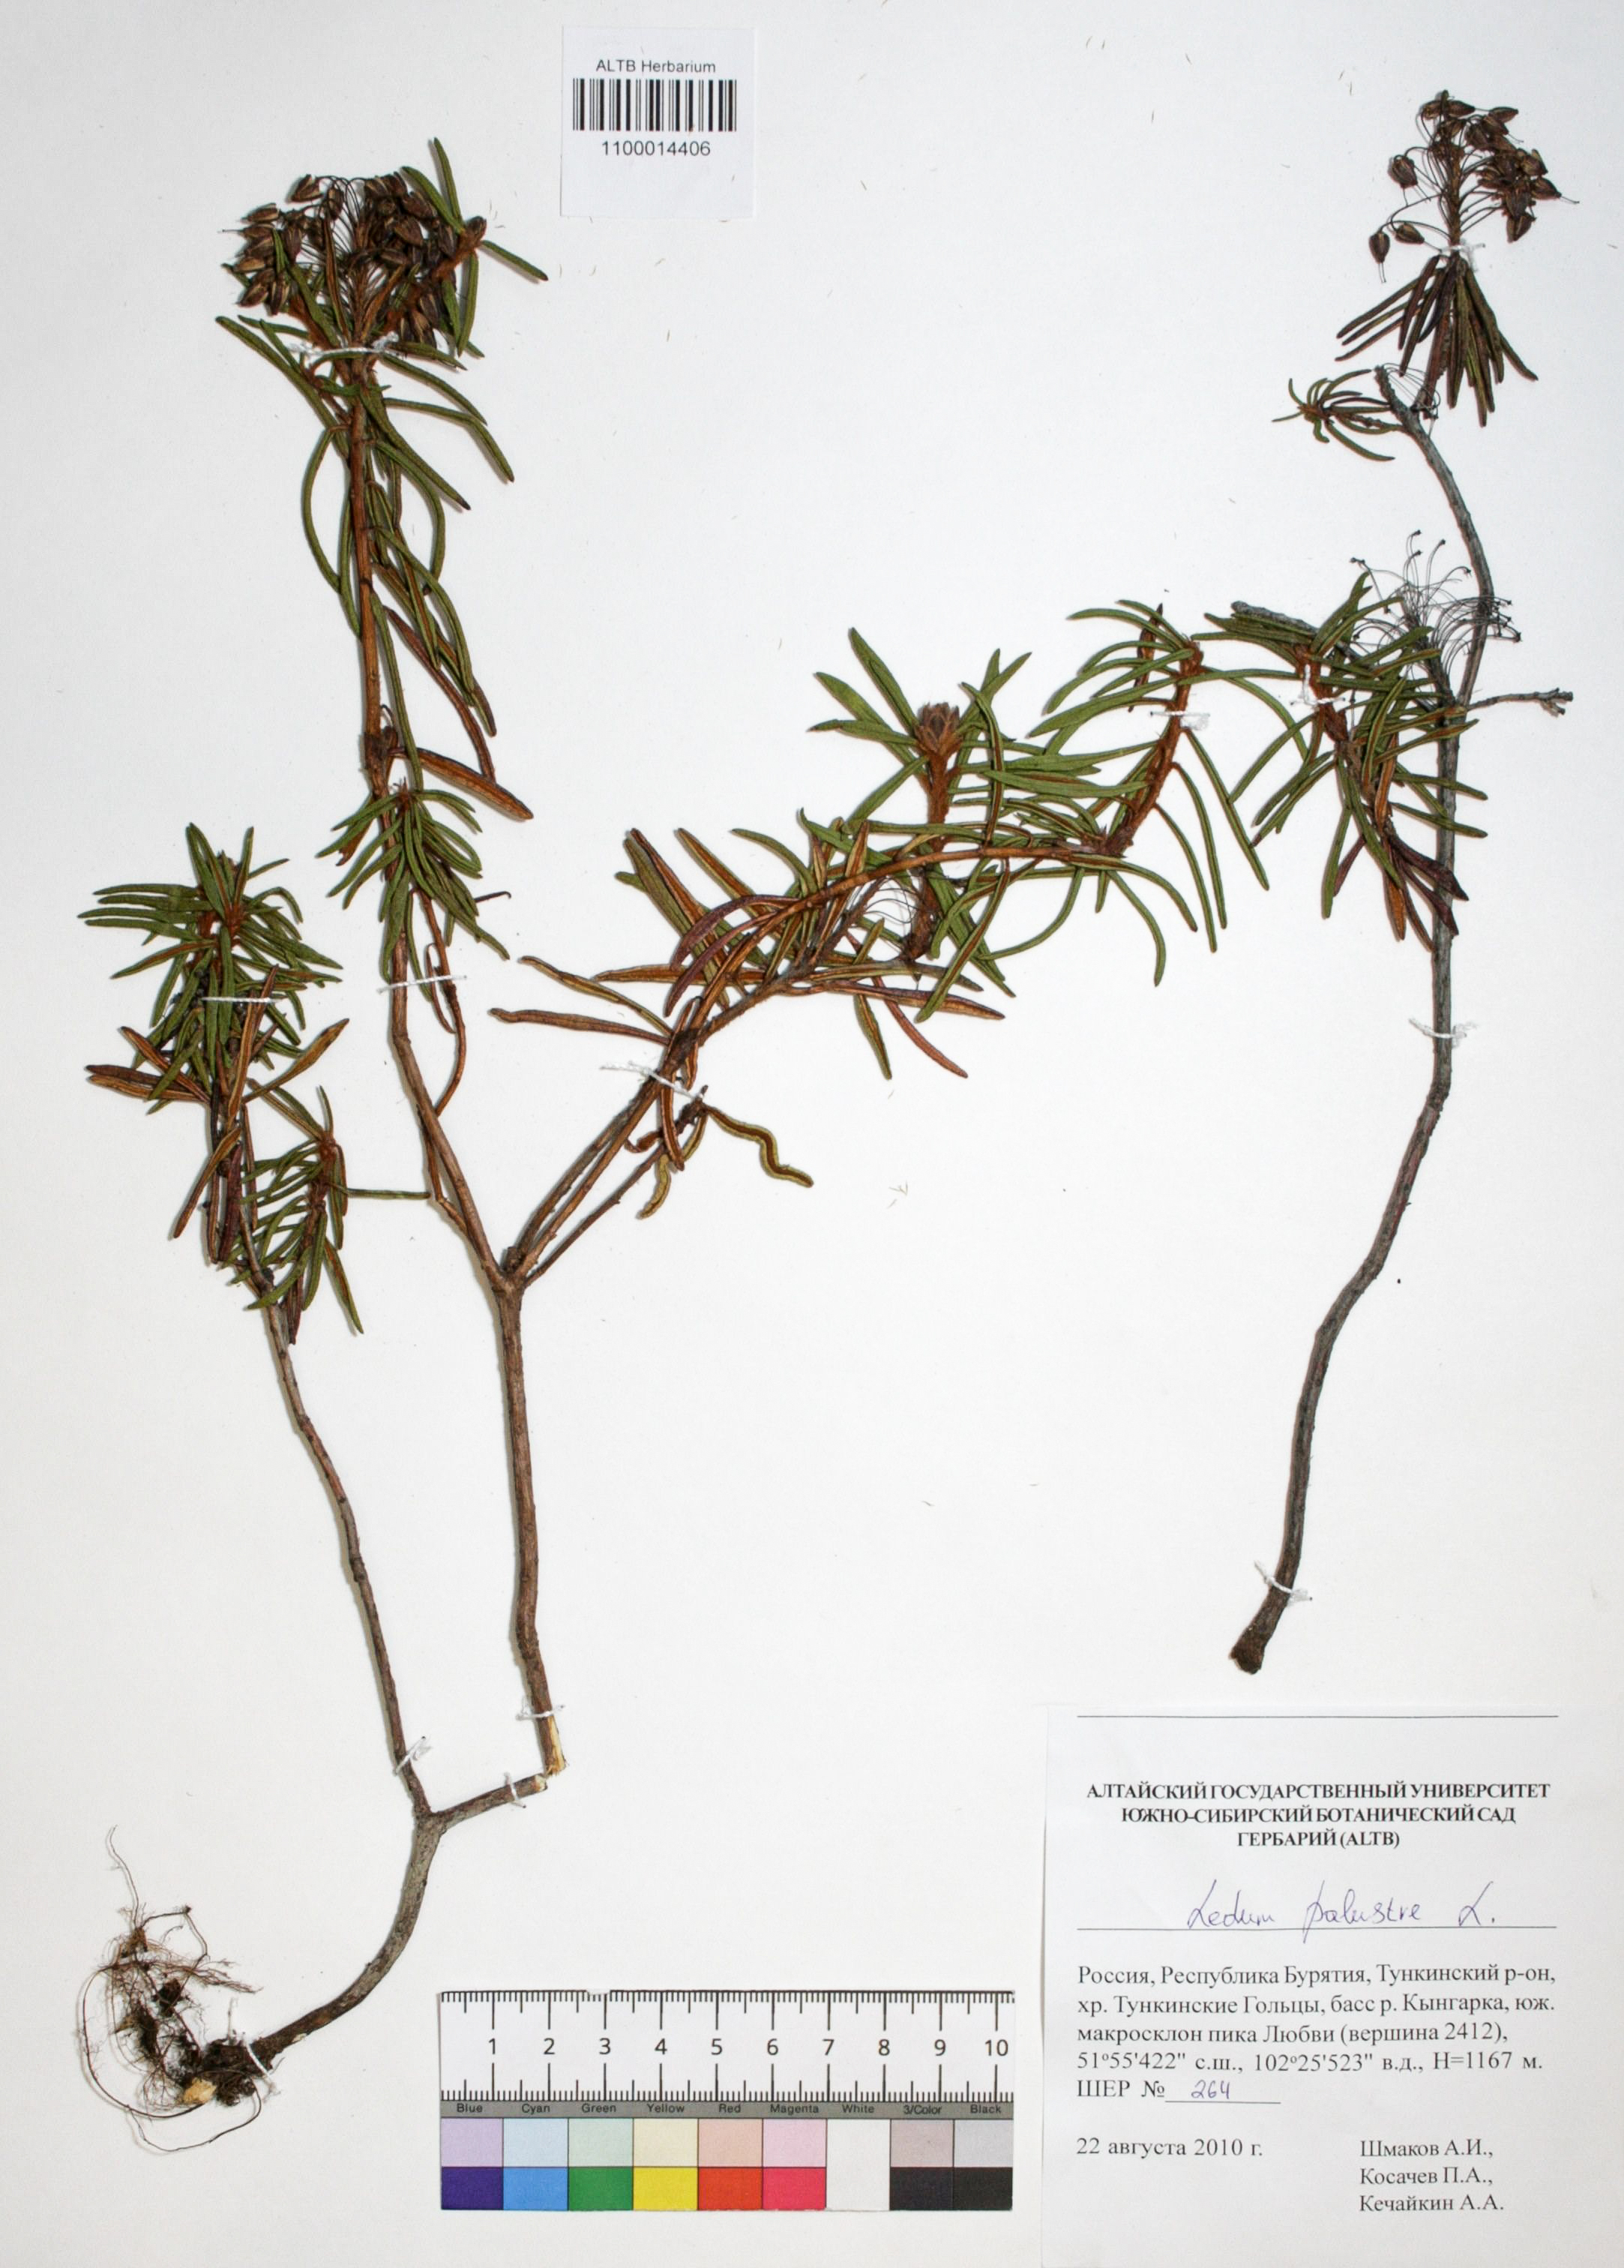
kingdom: Plantae
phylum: Tracheophyta
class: Magnoliopsida
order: Ericales
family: Ericaceae
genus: Rhododendron
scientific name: Rhododendron tomentosum
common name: Marsh labrador tea
